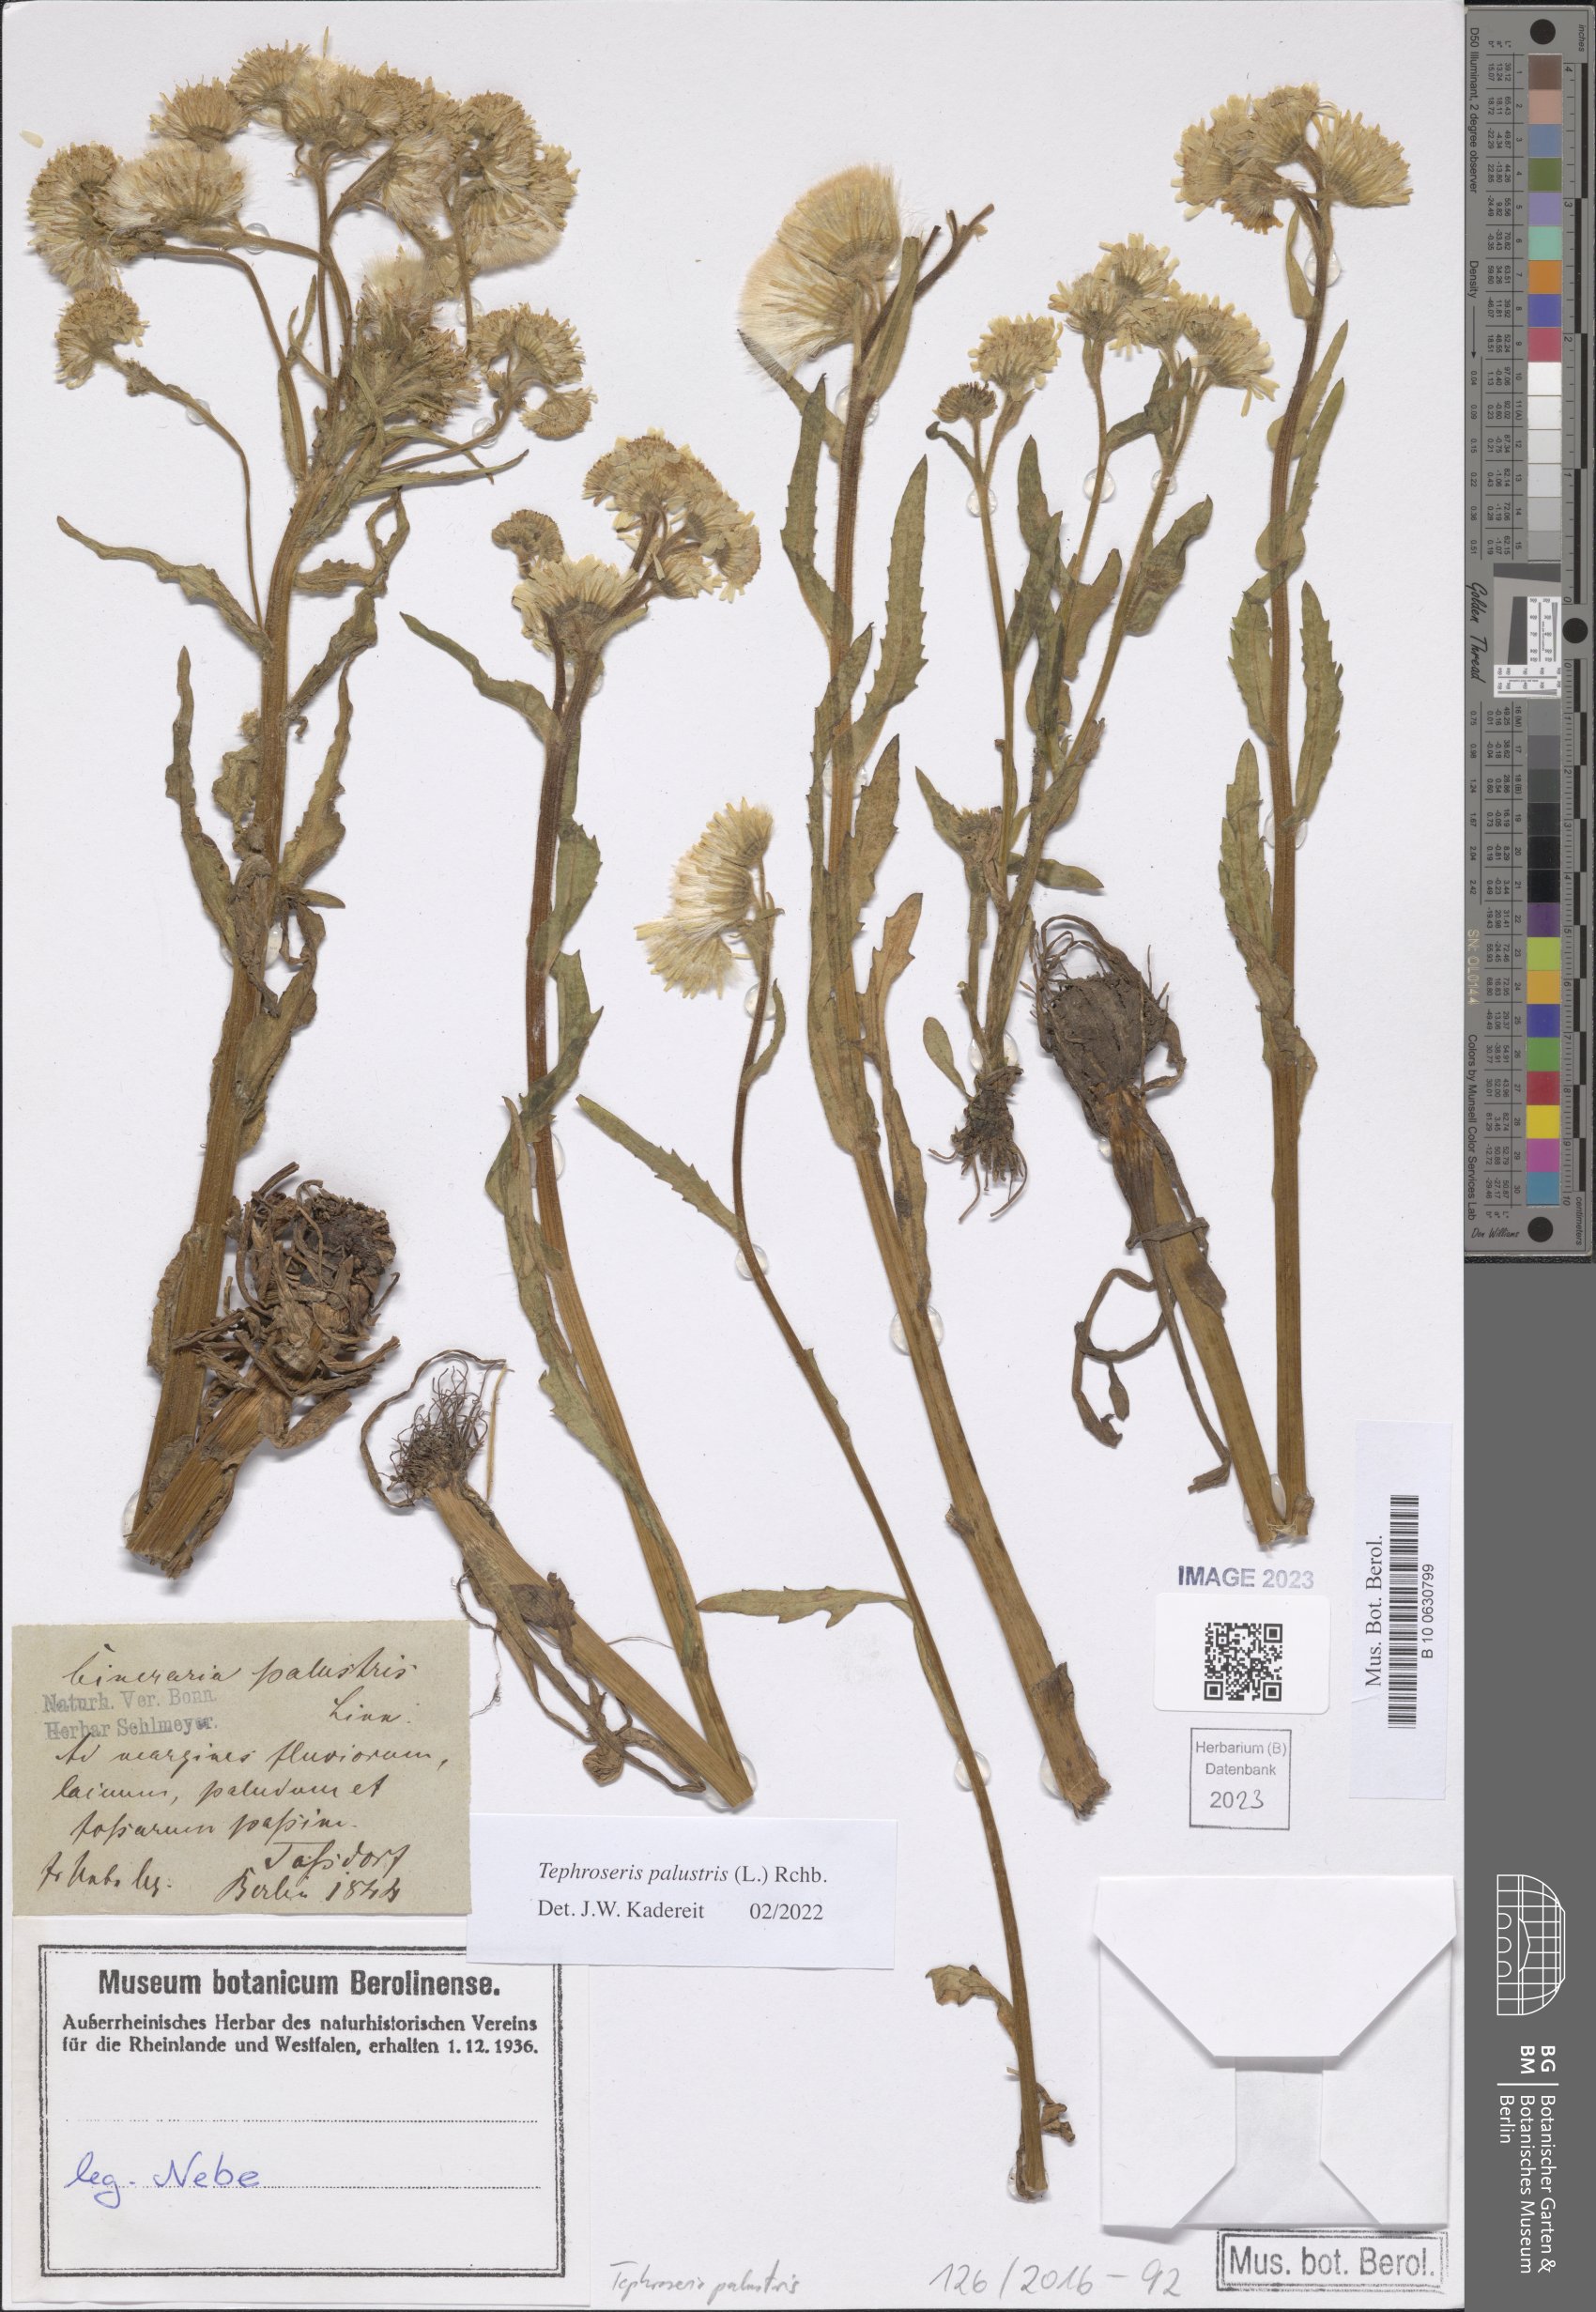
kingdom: Plantae
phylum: Tracheophyta
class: Magnoliopsida
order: Asterales
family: Asteraceae
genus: Tephroseris
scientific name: Tephroseris palustris
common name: Marsh fleawort
